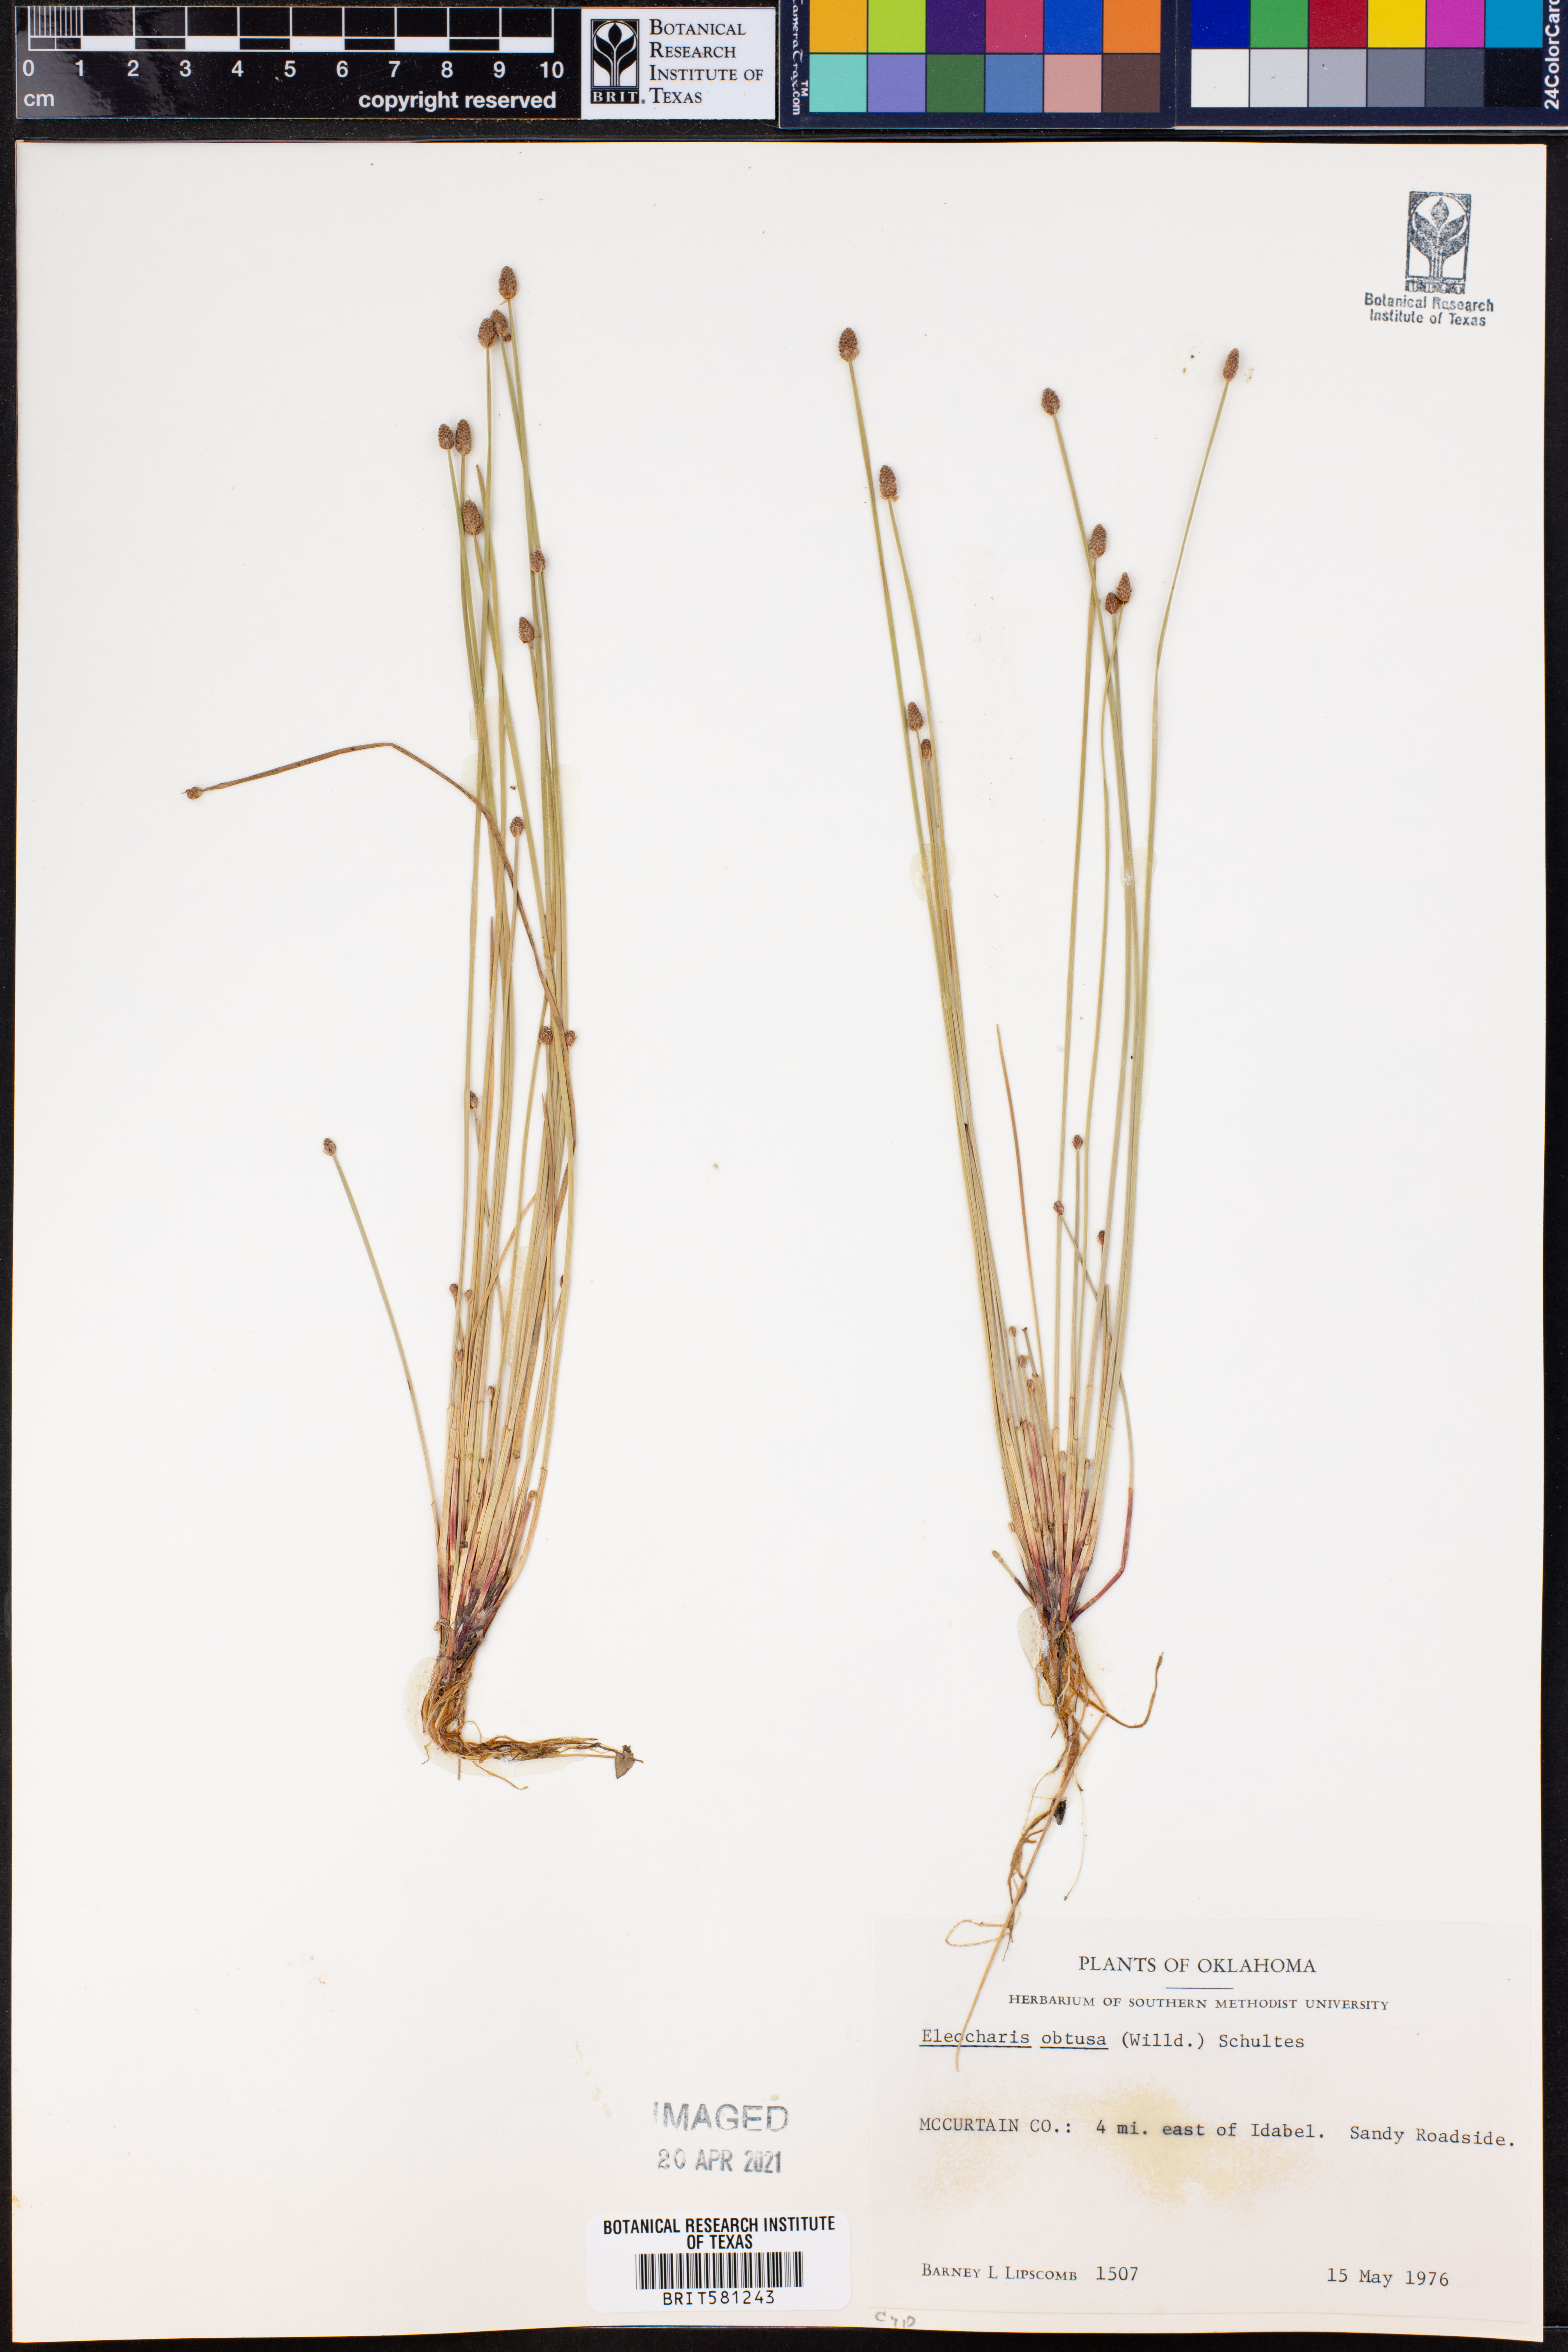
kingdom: Plantae
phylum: Tracheophyta
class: Liliopsida
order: Poales
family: Cyperaceae
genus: Eleocharis
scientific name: Eleocharis obtusa
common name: Blunt spikerush
